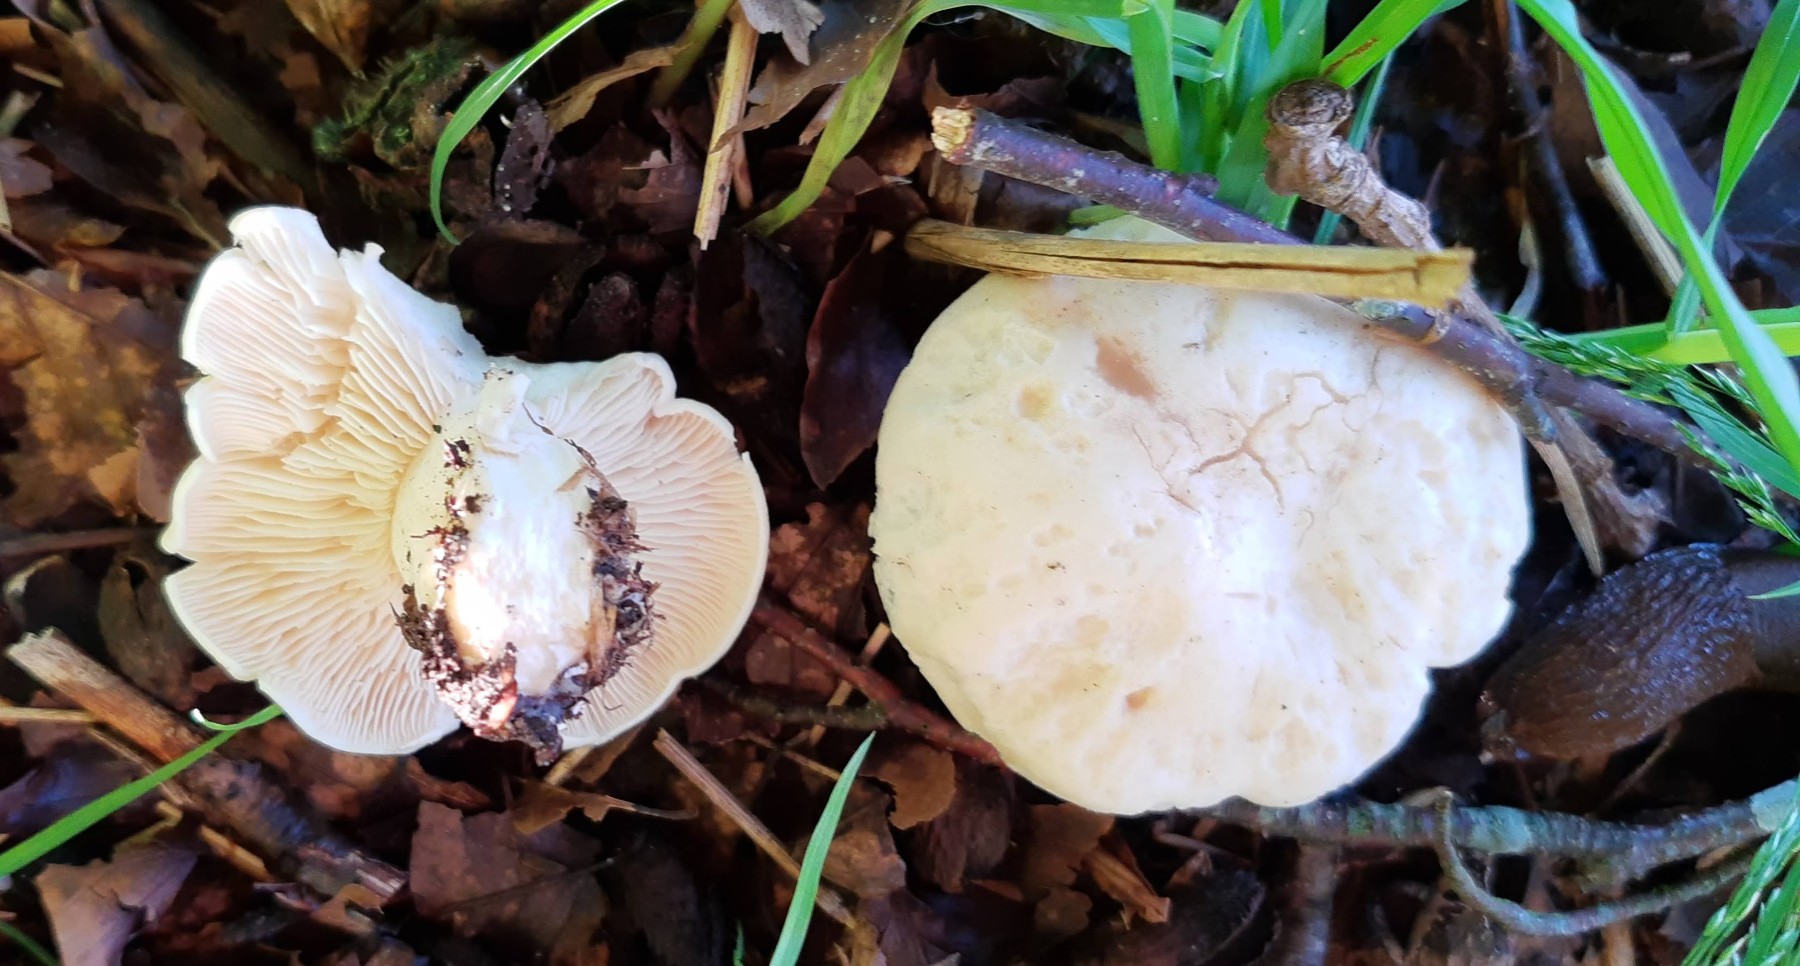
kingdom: Fungi
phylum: Basidiomycota
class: Agaricomycetes
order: Agaricales
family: Lyophyllaceae
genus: Calocybe
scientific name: Calocybe gambosa
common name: vårmusseron
